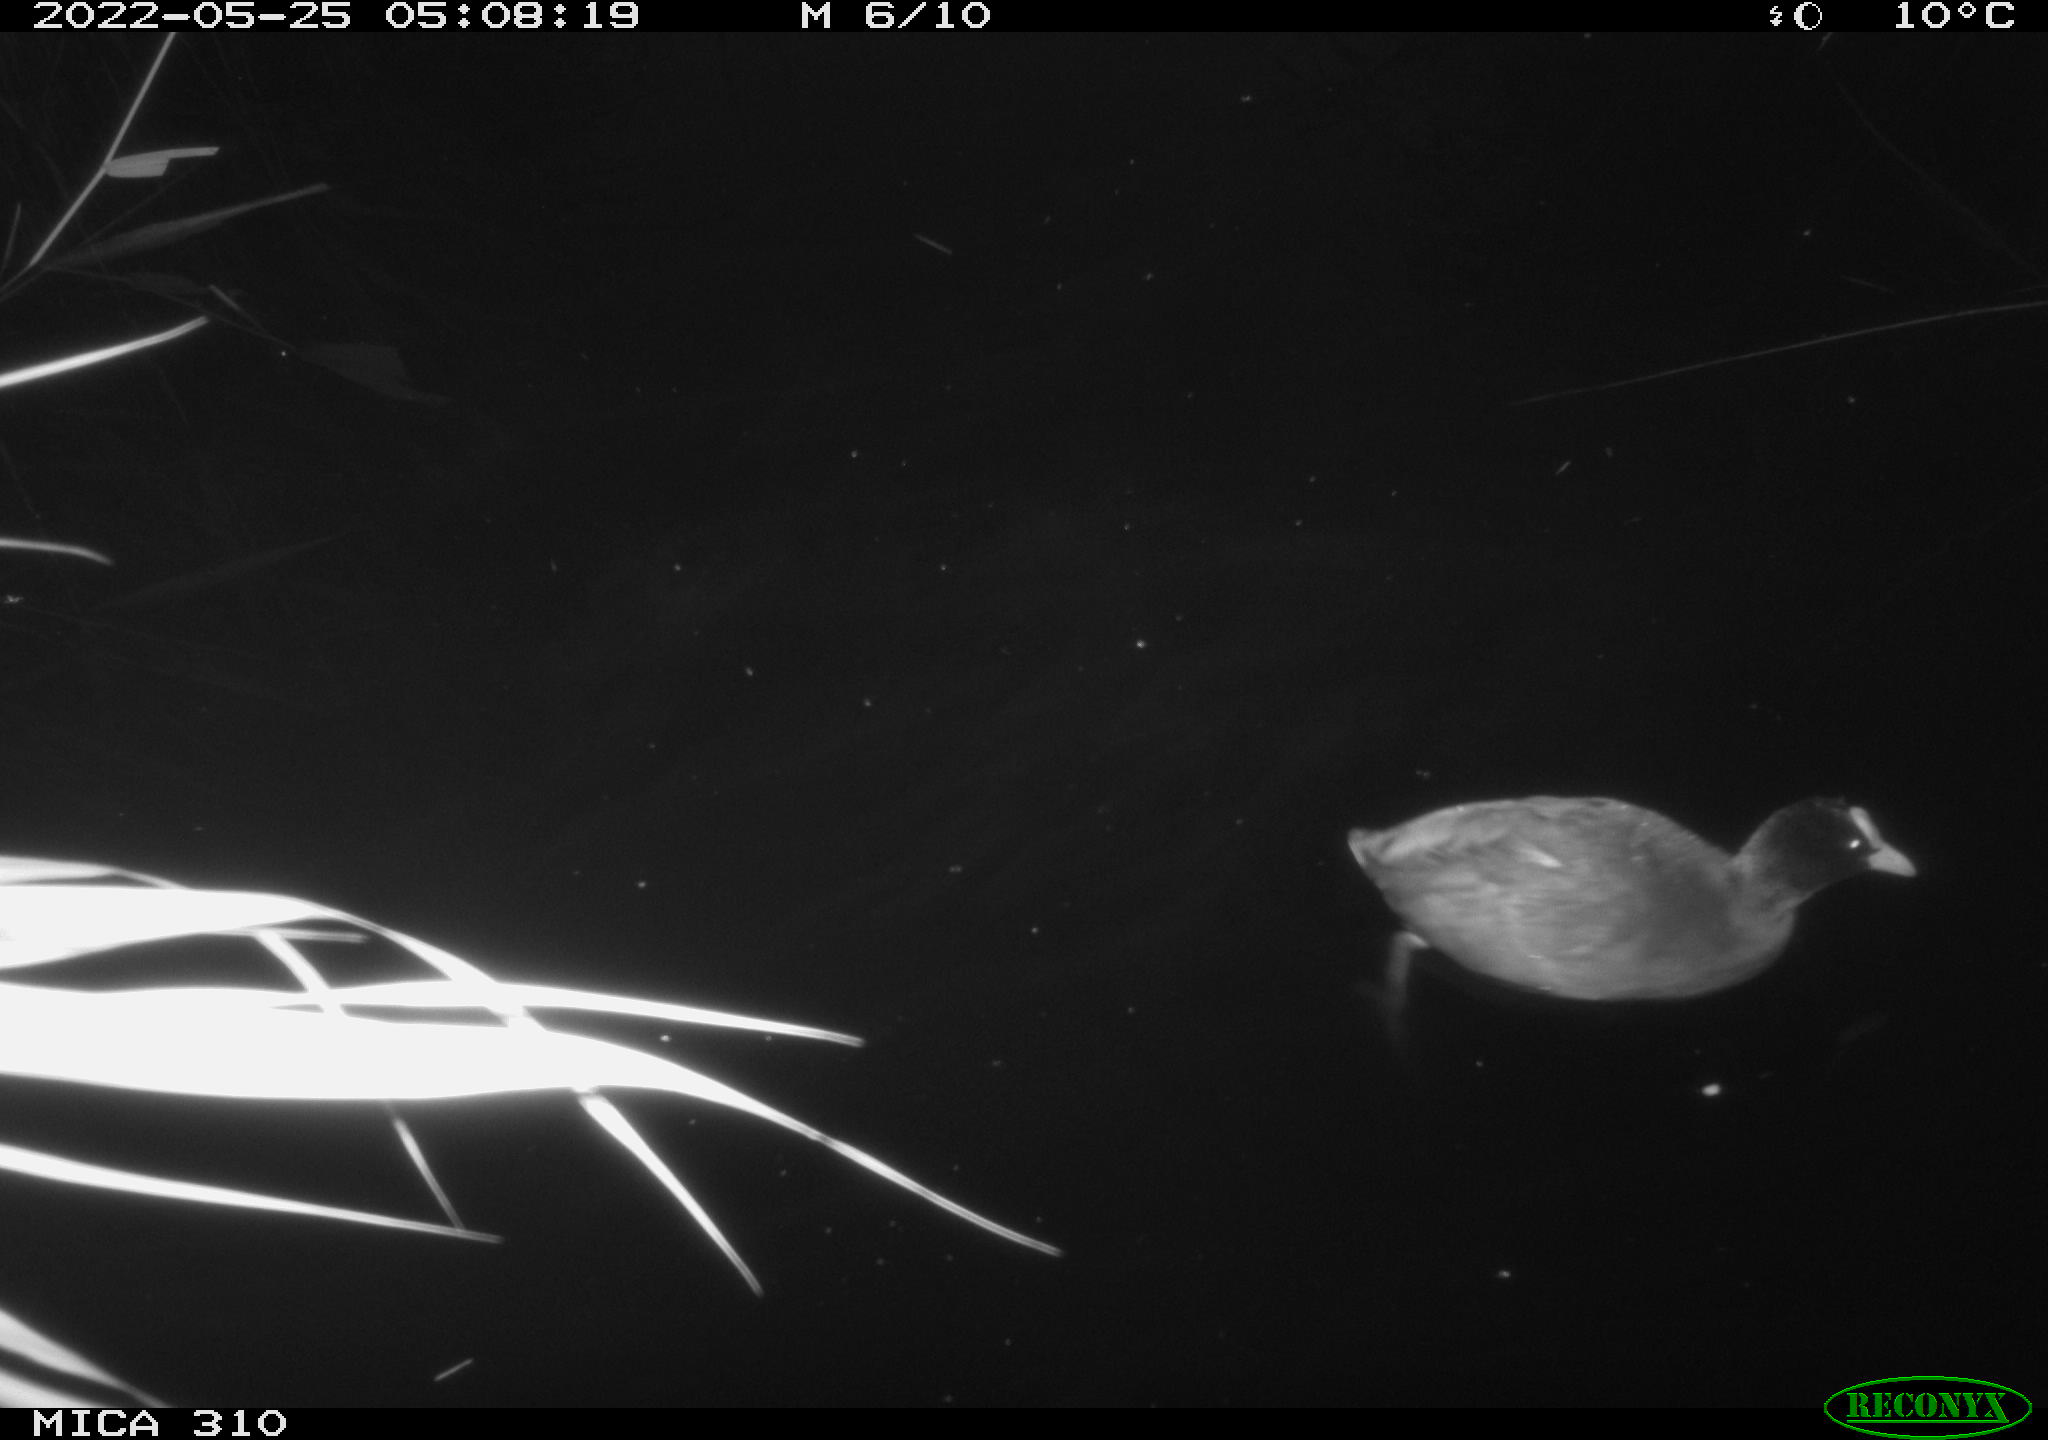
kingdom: Animalia
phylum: Chordata
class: Aves
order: Gruiformes
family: Rallidae
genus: Fulica
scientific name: Fulica atra
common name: Eurasian coot
